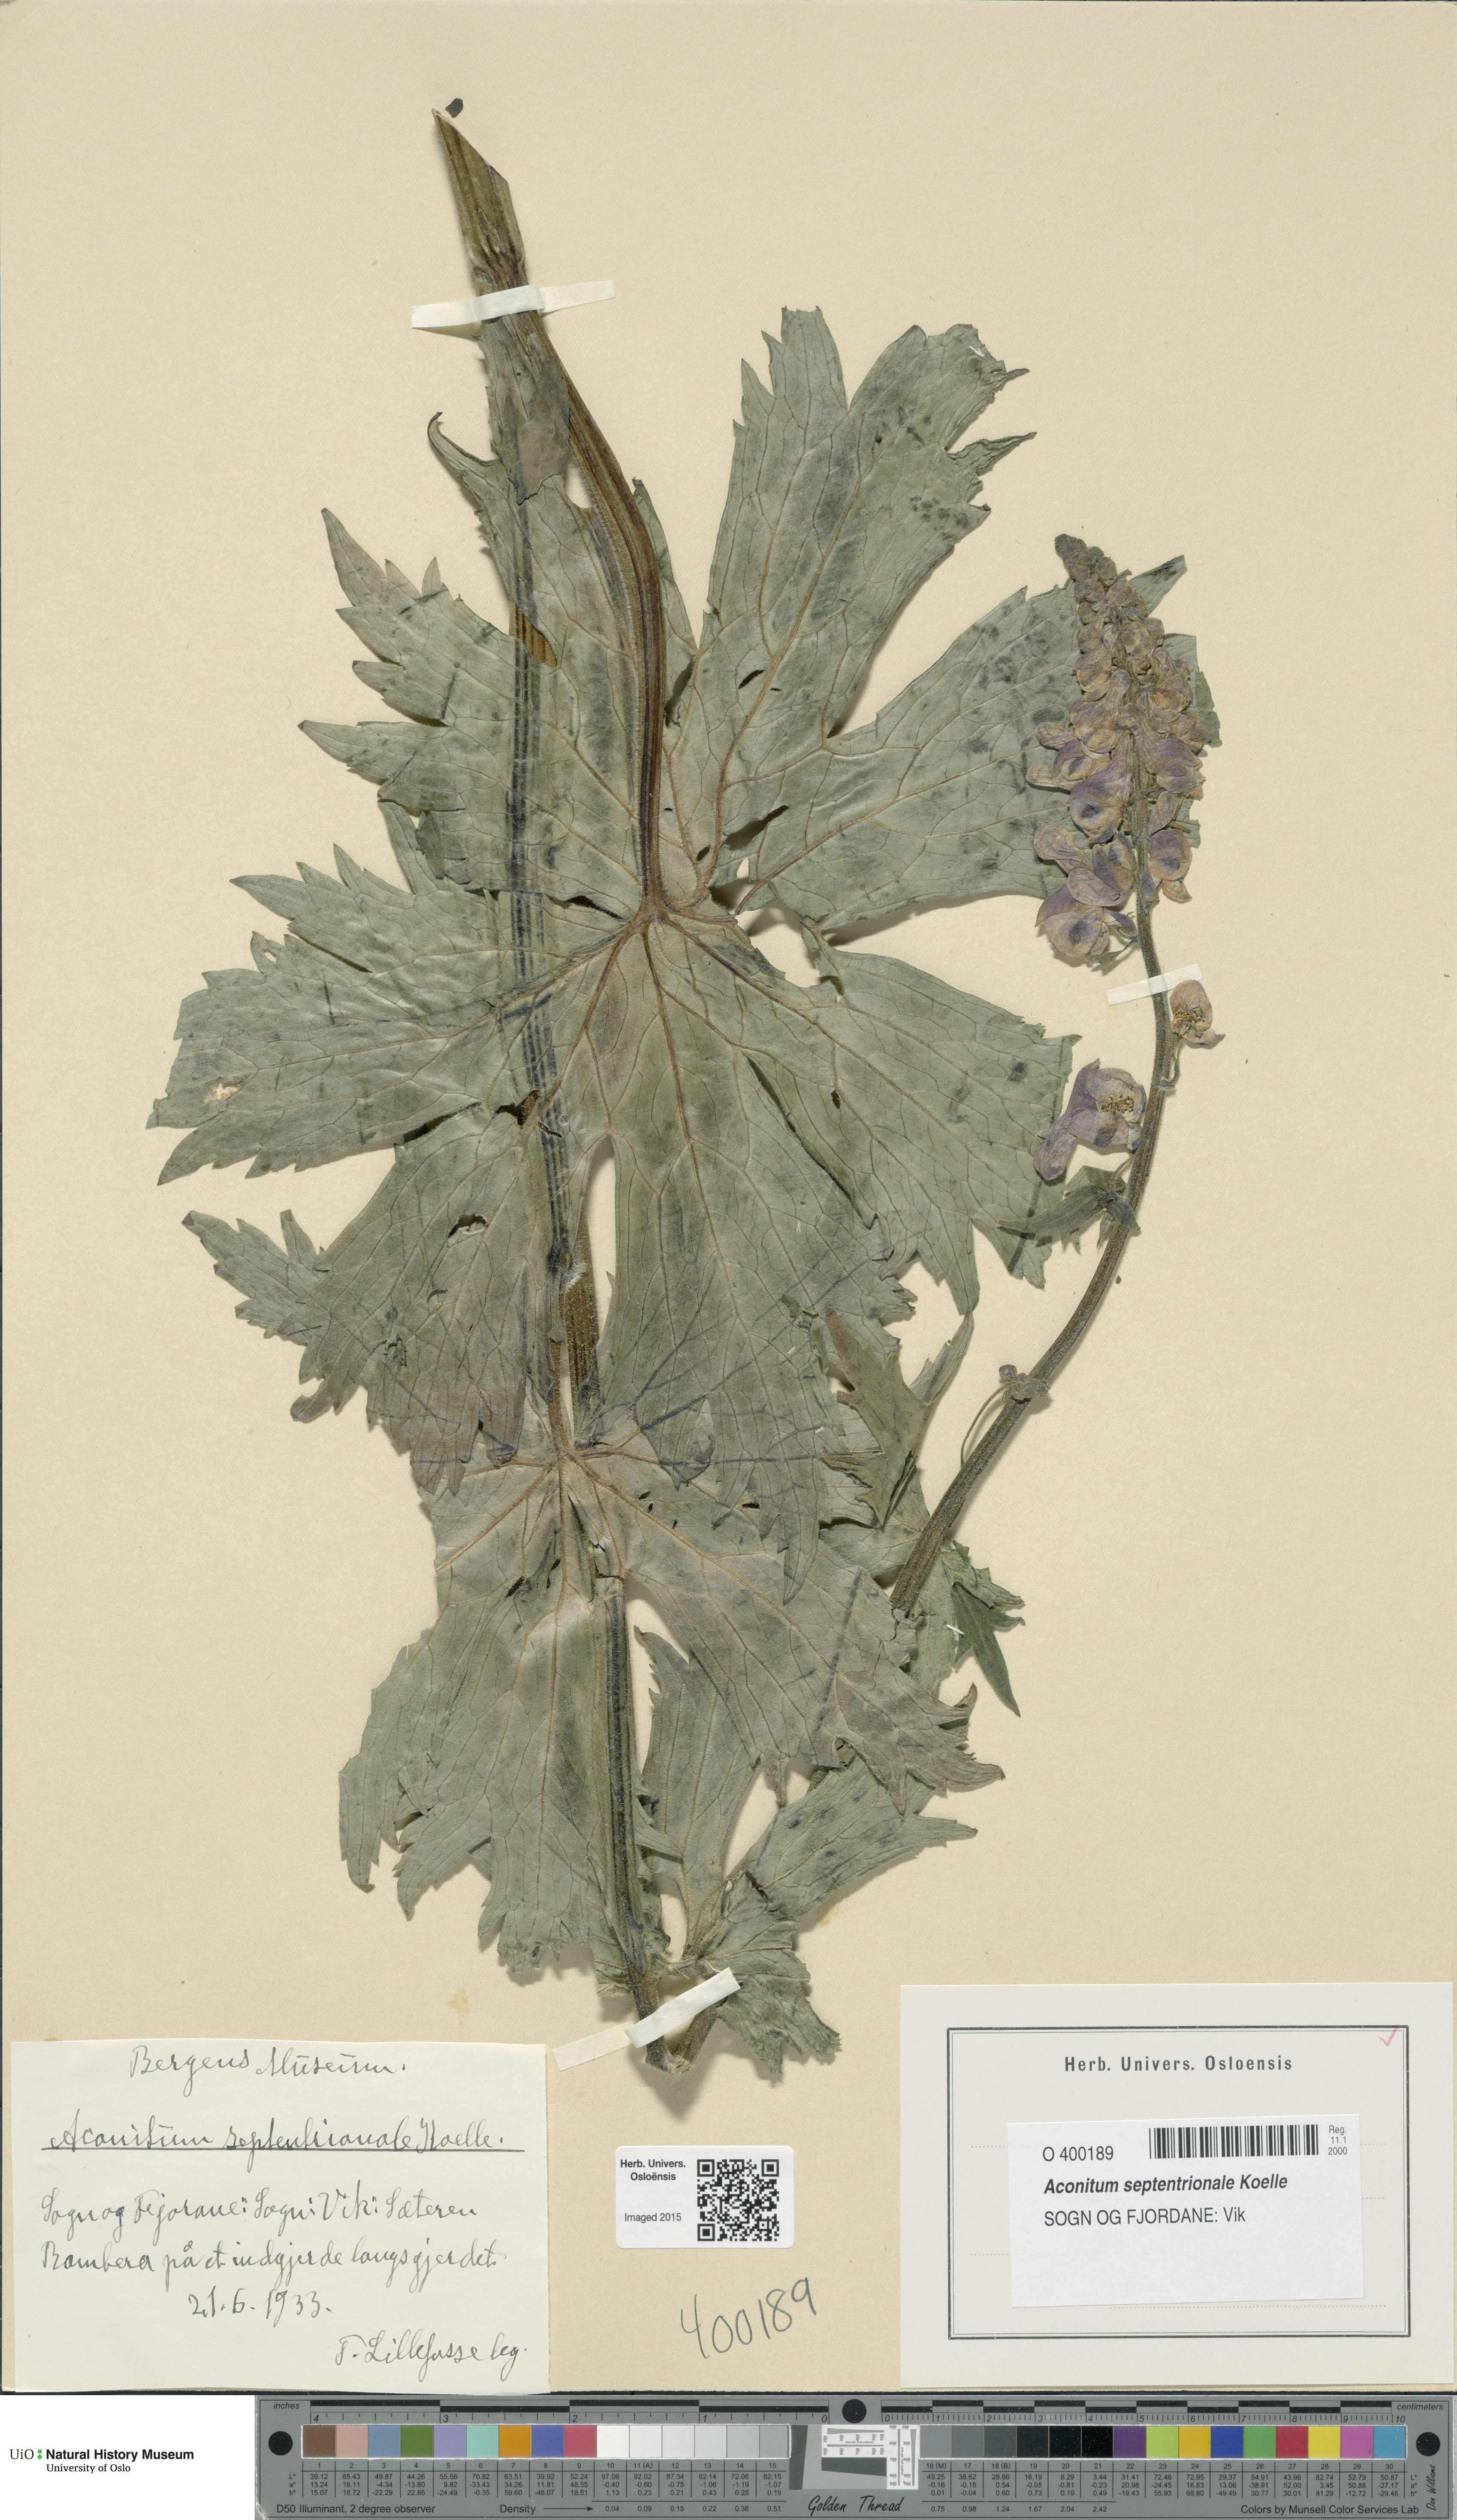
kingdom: Plantae
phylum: Tracheophyta
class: Magnoliopsida
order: Ranunculales
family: Ranunculaceae
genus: Aconitum
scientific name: Aconitum septentrionale
